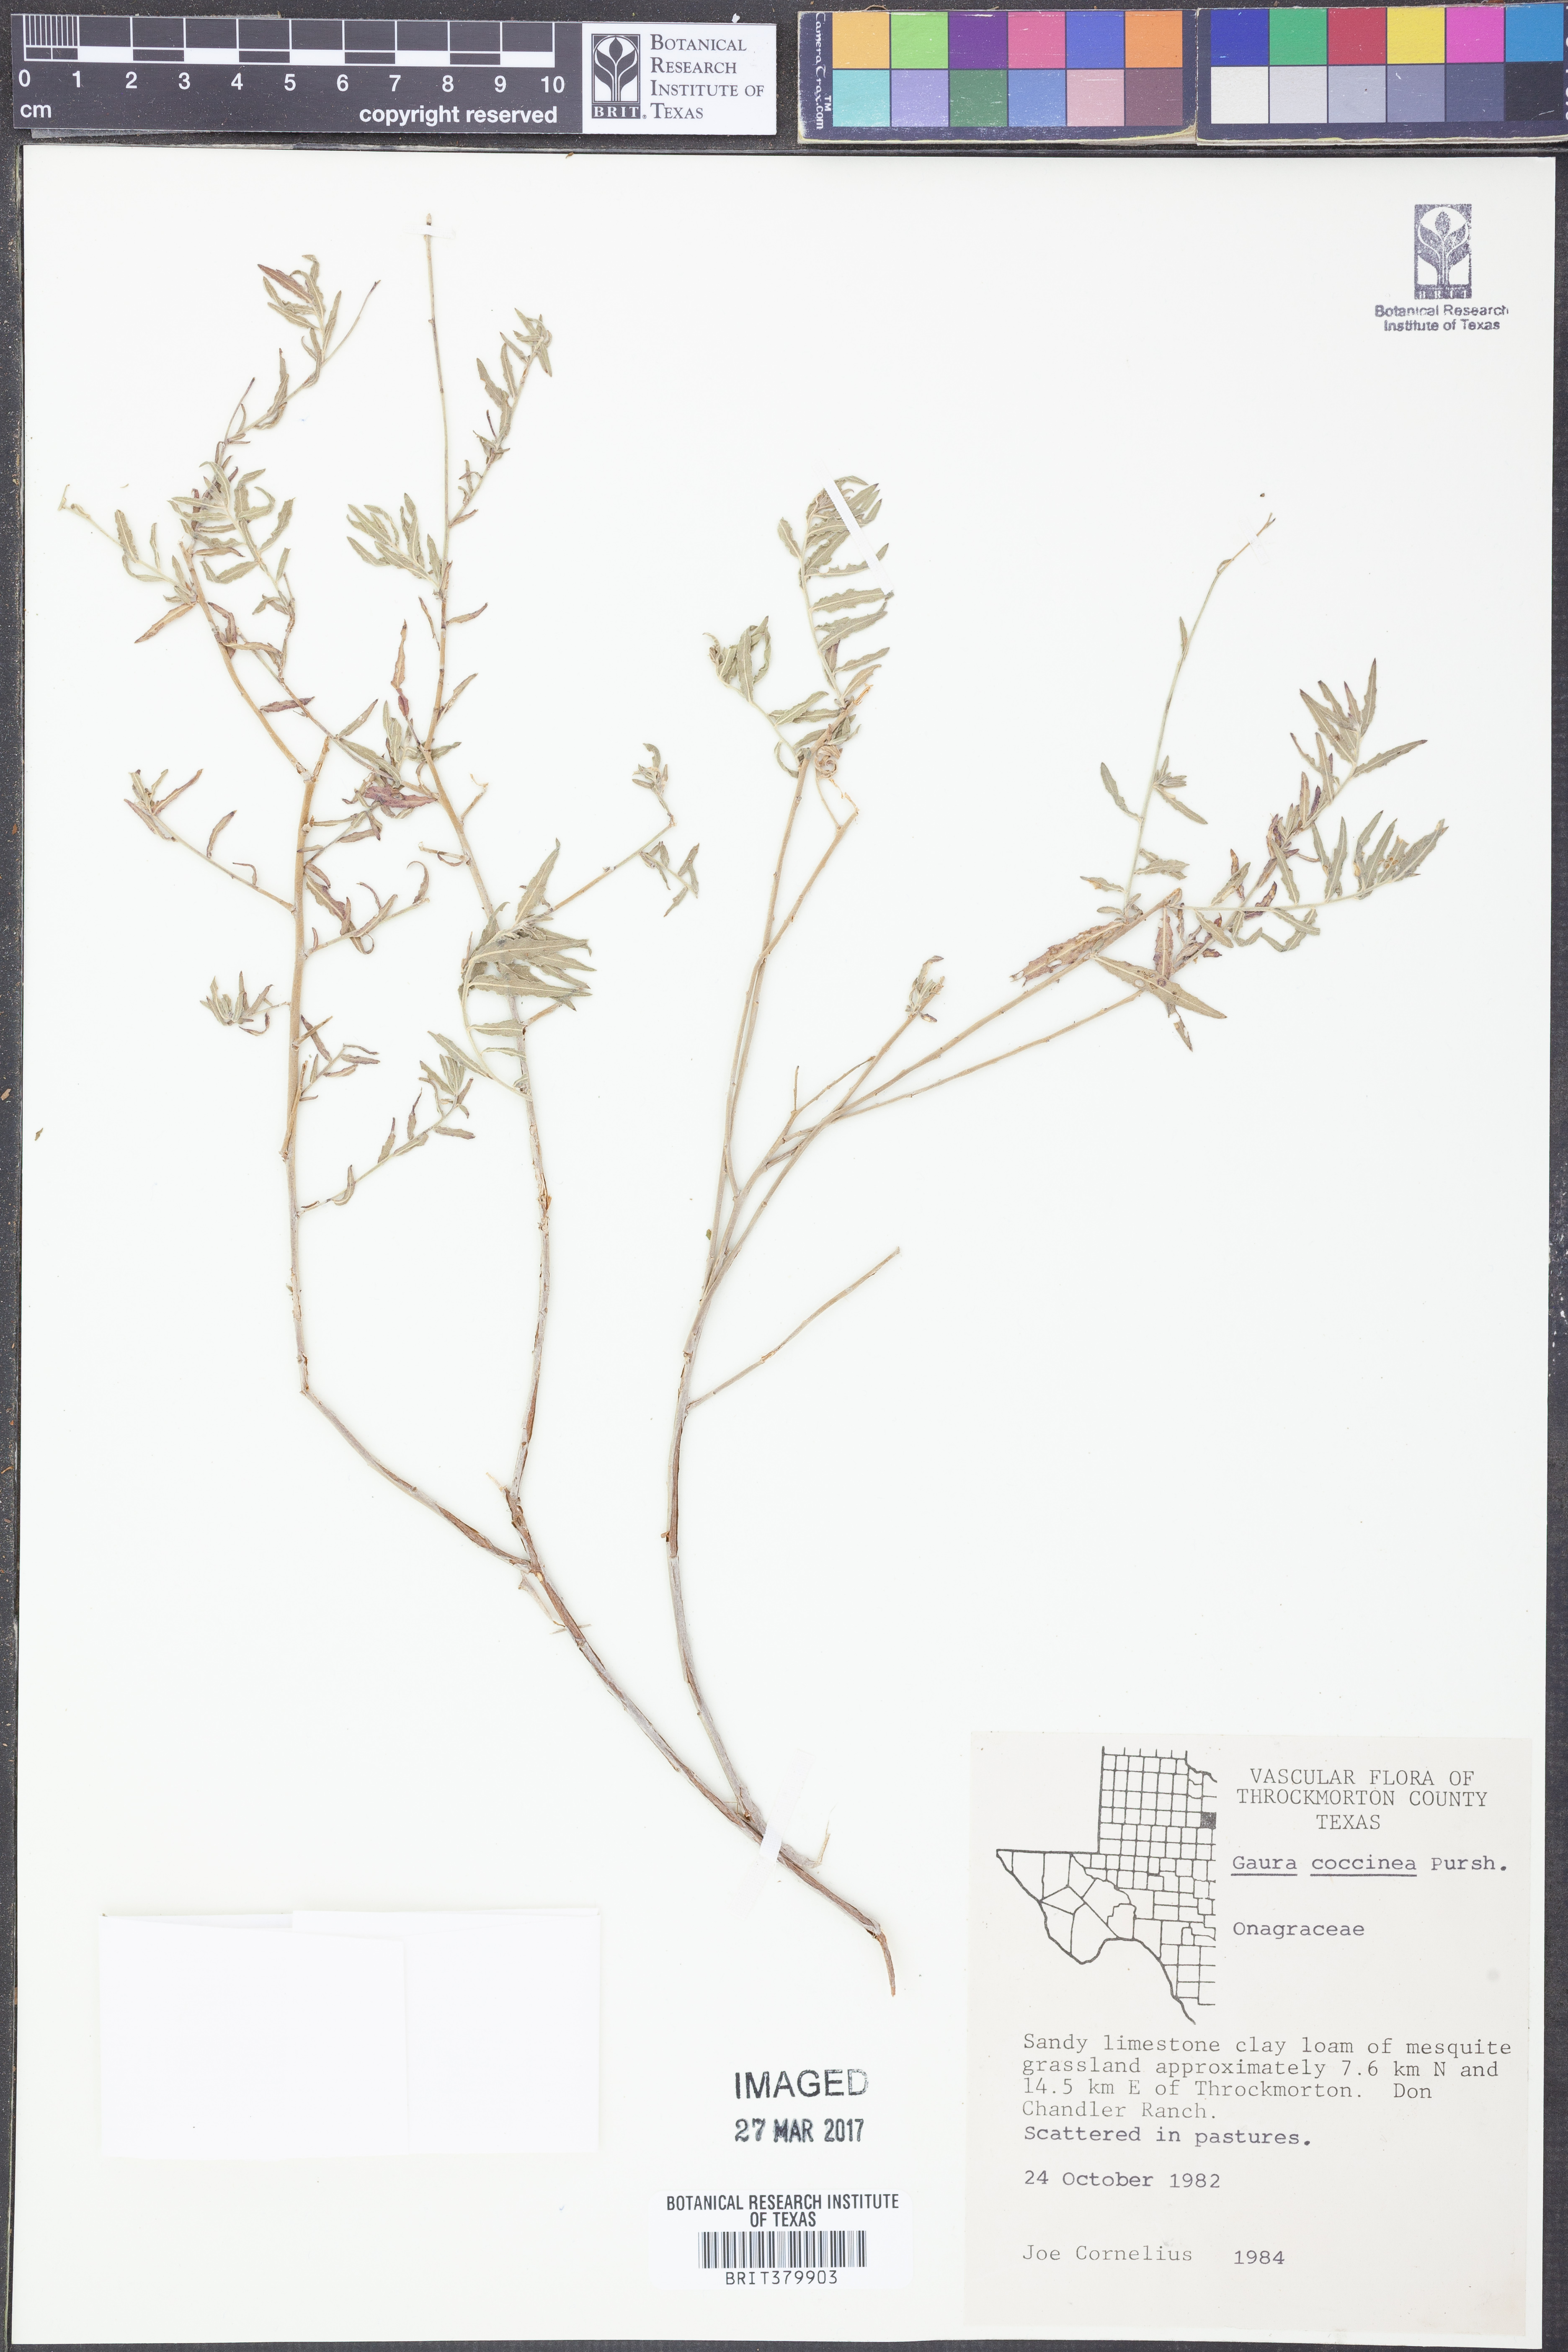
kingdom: Plantae
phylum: Tracheophyta
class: Magnoliopsida
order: Myrtales
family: Onagraceae
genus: Oenothera
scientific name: Oenothera suffrutescens
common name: Scarlet beeblossom
